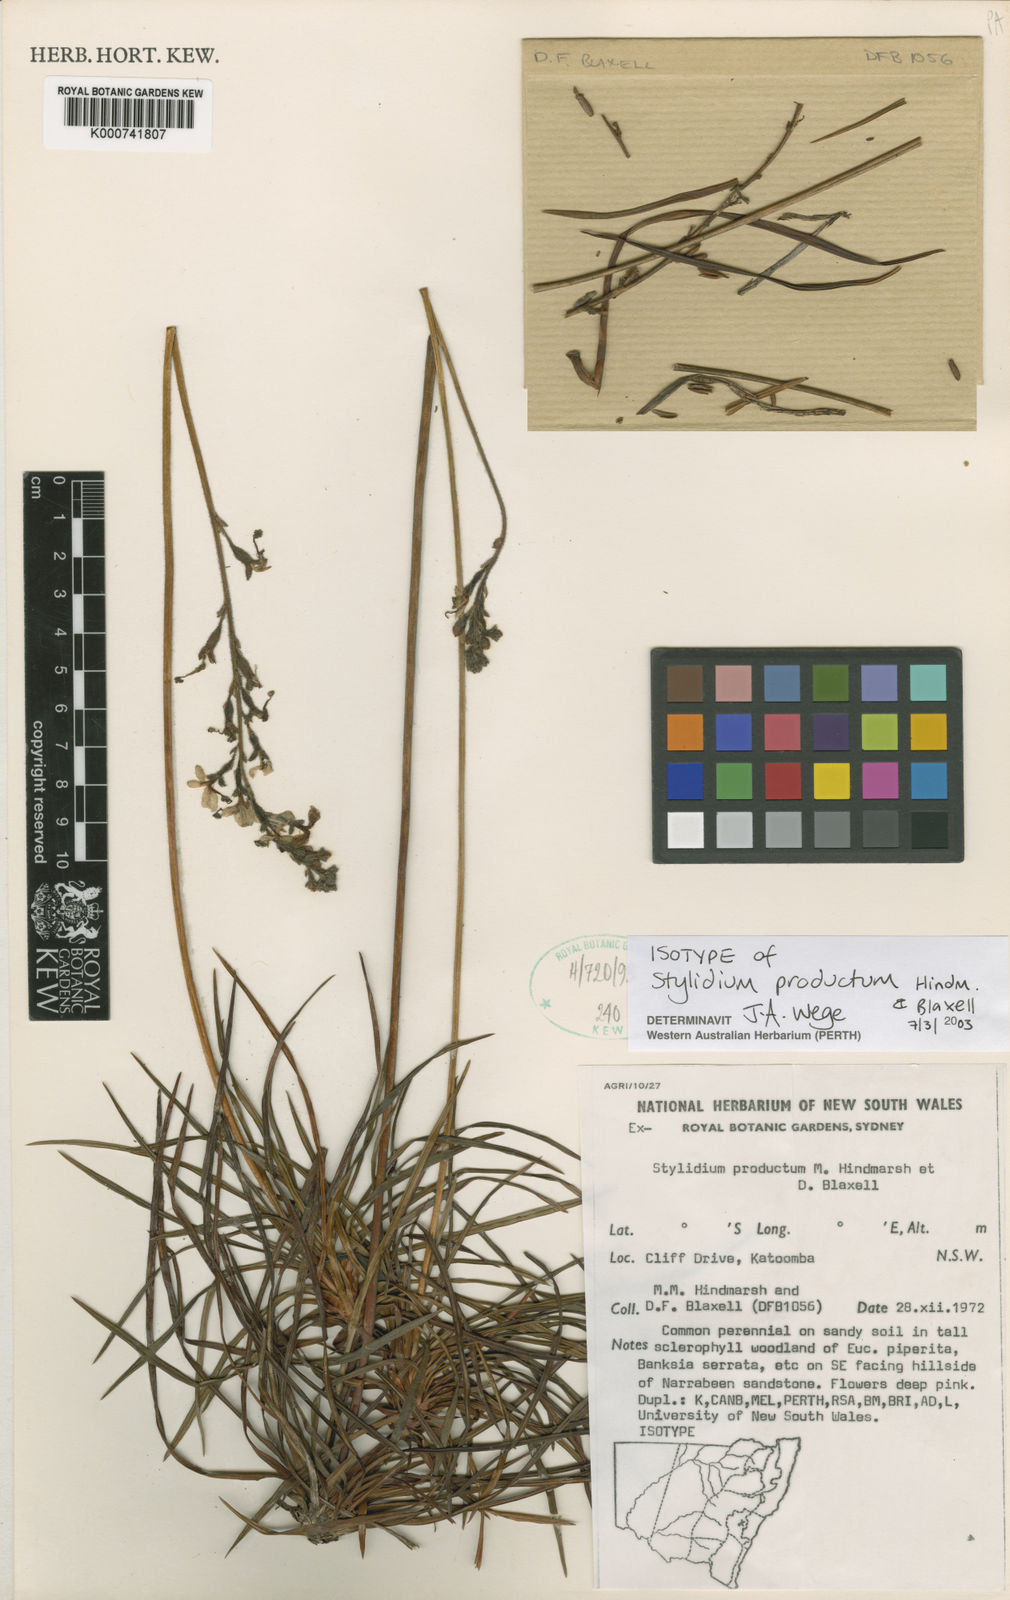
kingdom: Plantae
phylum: Tracheophyta
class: Magnoliopsida
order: Asterales
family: Stylidiaceae
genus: Stylidium
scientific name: Stylidium productum
